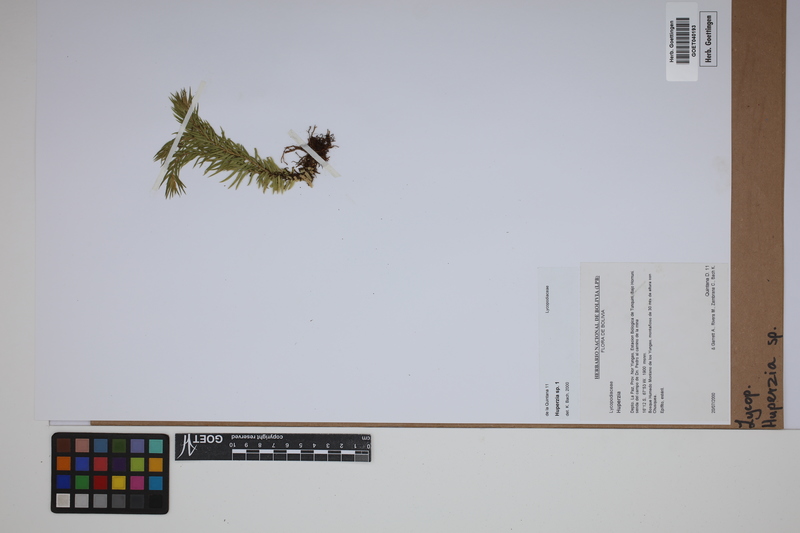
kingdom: Plantae
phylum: Tracheophyta
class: Lycopodiopsida
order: Lycopodiales
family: Lycopodiaceae
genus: Phlegmariurus
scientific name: Phlegmariurus
